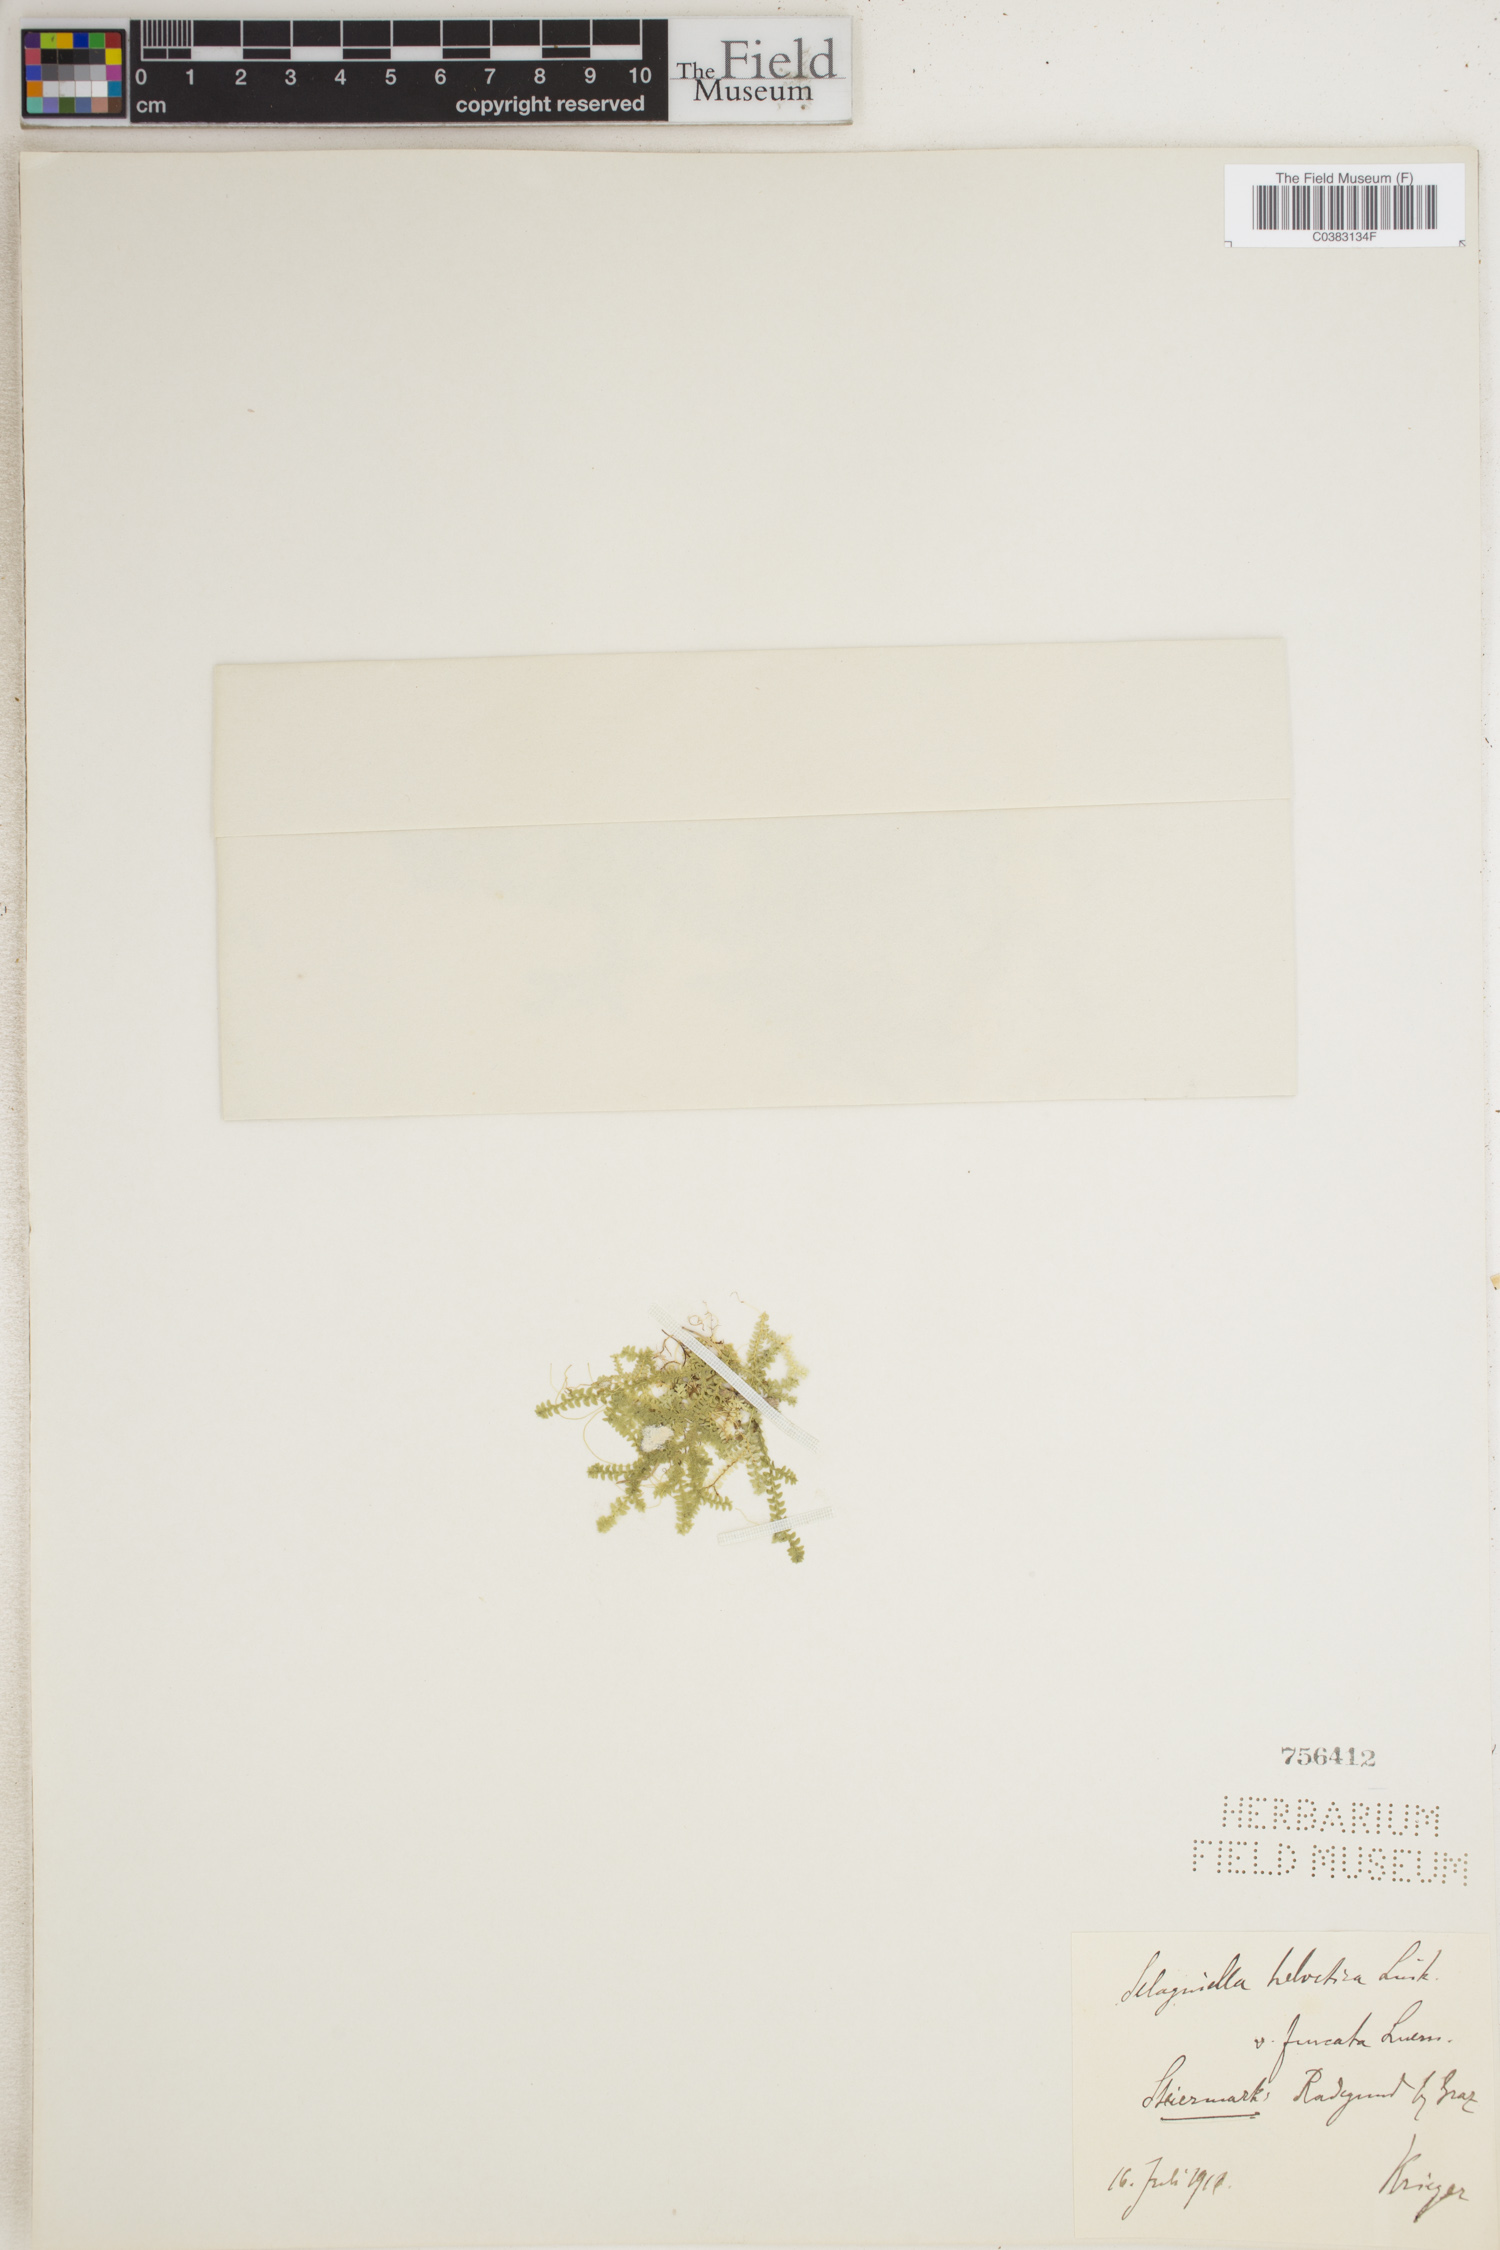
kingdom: Plantae
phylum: Tracheophyta
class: Lycopodiopsida
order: Selaginellales
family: Selaginellaceae
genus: Selaginella
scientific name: Selaginella helvetica
